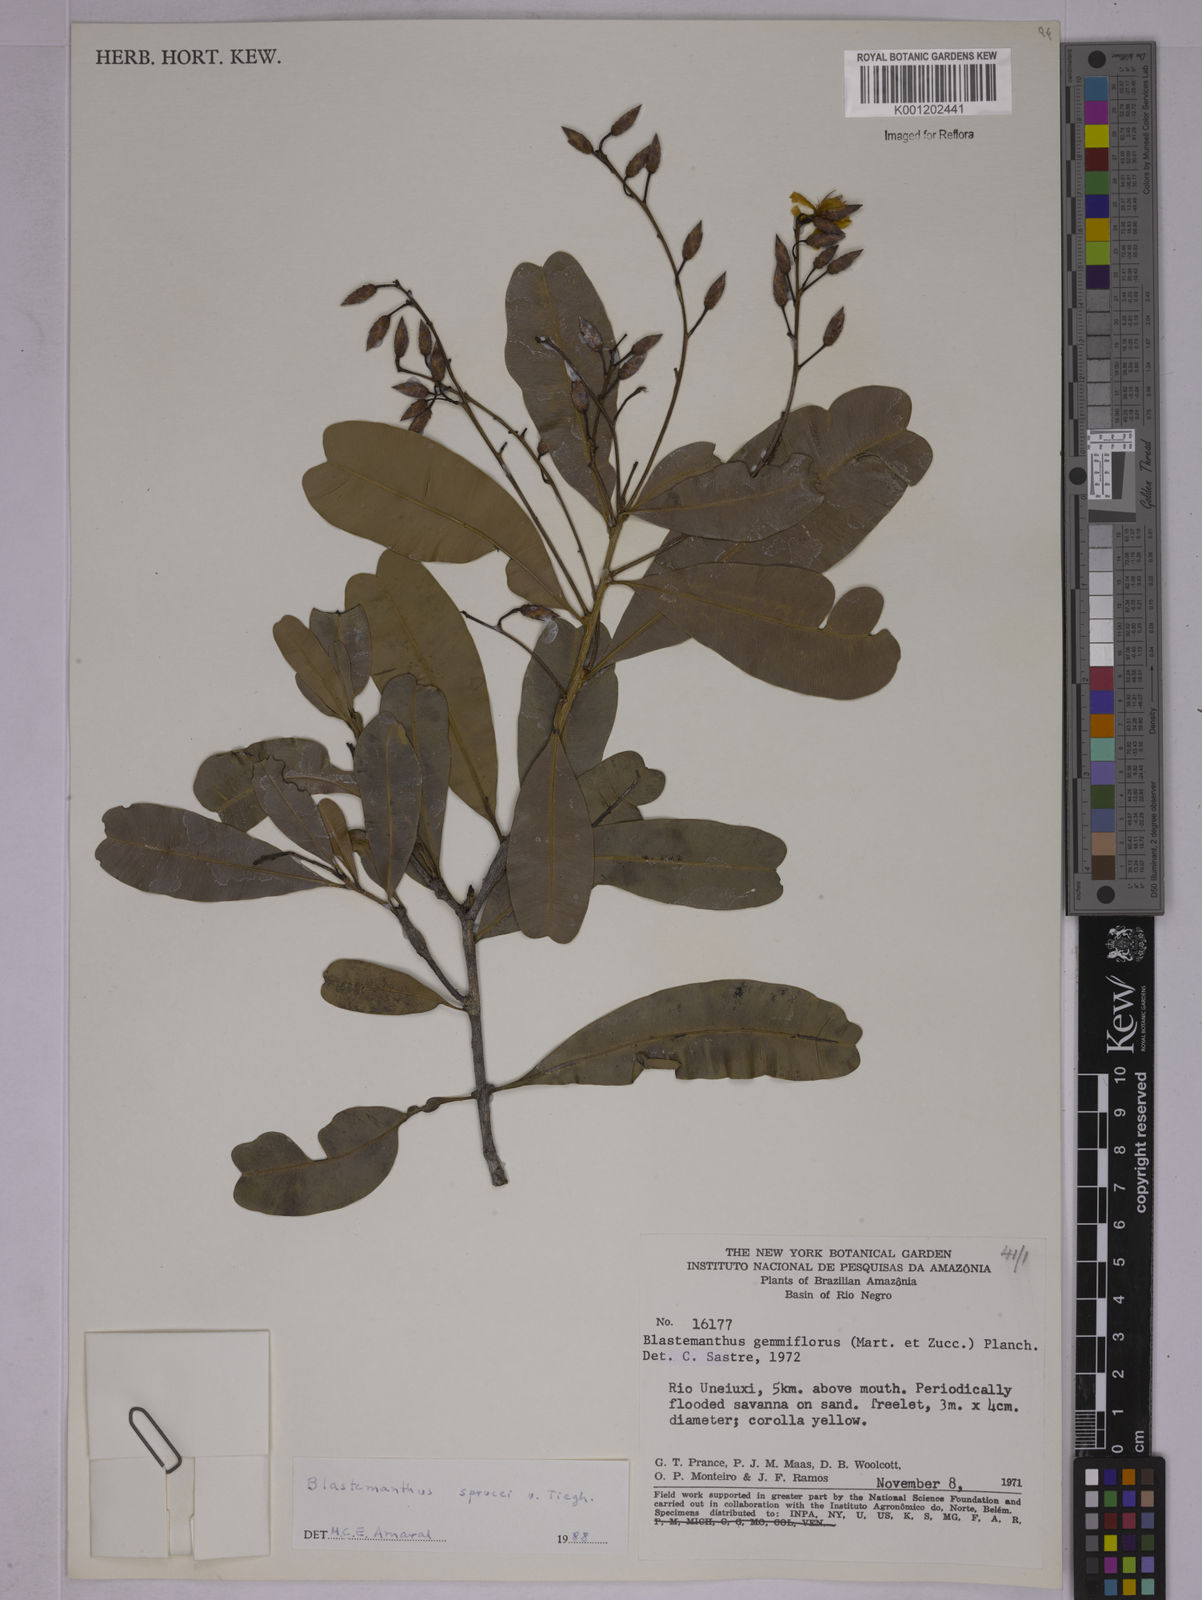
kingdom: Plantae
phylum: Tracheophyta
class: Magnoliopsida
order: Malpighiales
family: Ochnaceae
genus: Blastemanthus
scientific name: Blastemanthus gemmiflorus
